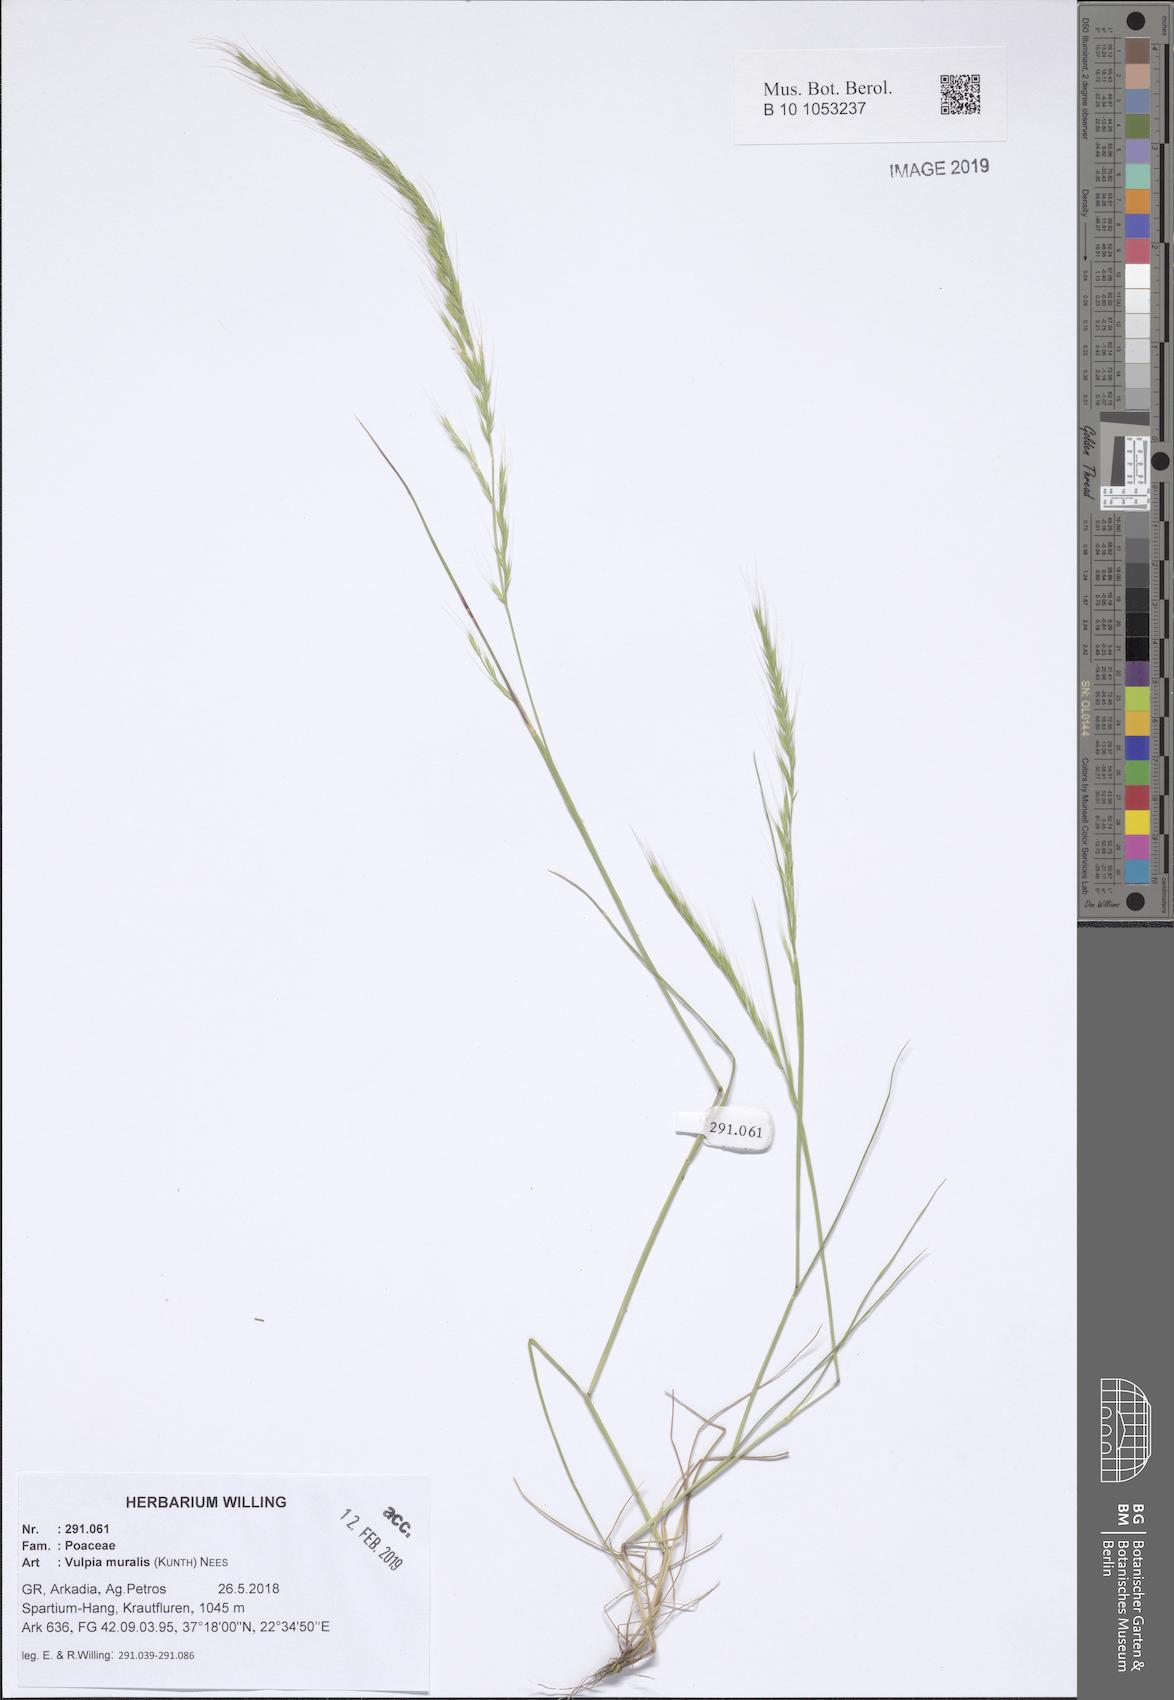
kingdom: Plantae
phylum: Tracheophyta
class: Liliopsida
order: Poales
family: Poaceae
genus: Festuca
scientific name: Festuca muralis
